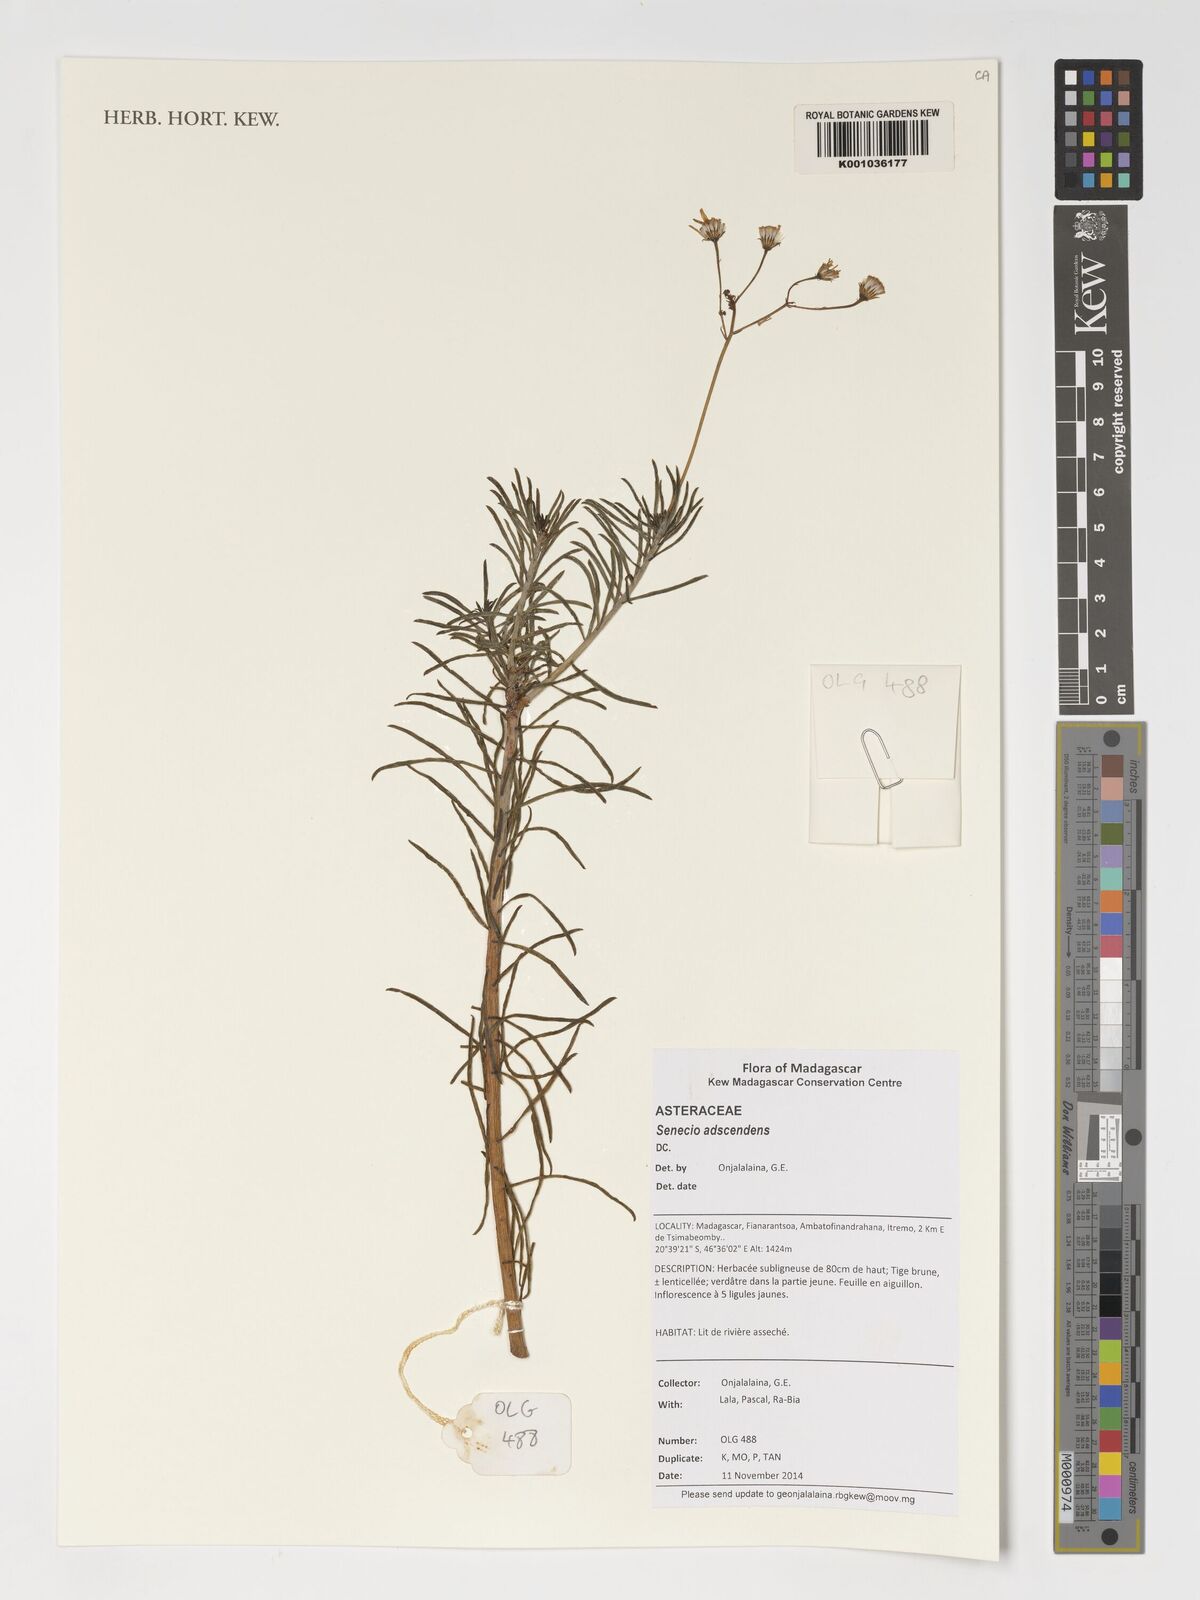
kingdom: Plantae
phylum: Tracheophyta
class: Magnoliopsida
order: Asterales
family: Asteraceae
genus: Senecio
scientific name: Senecio adscendens
